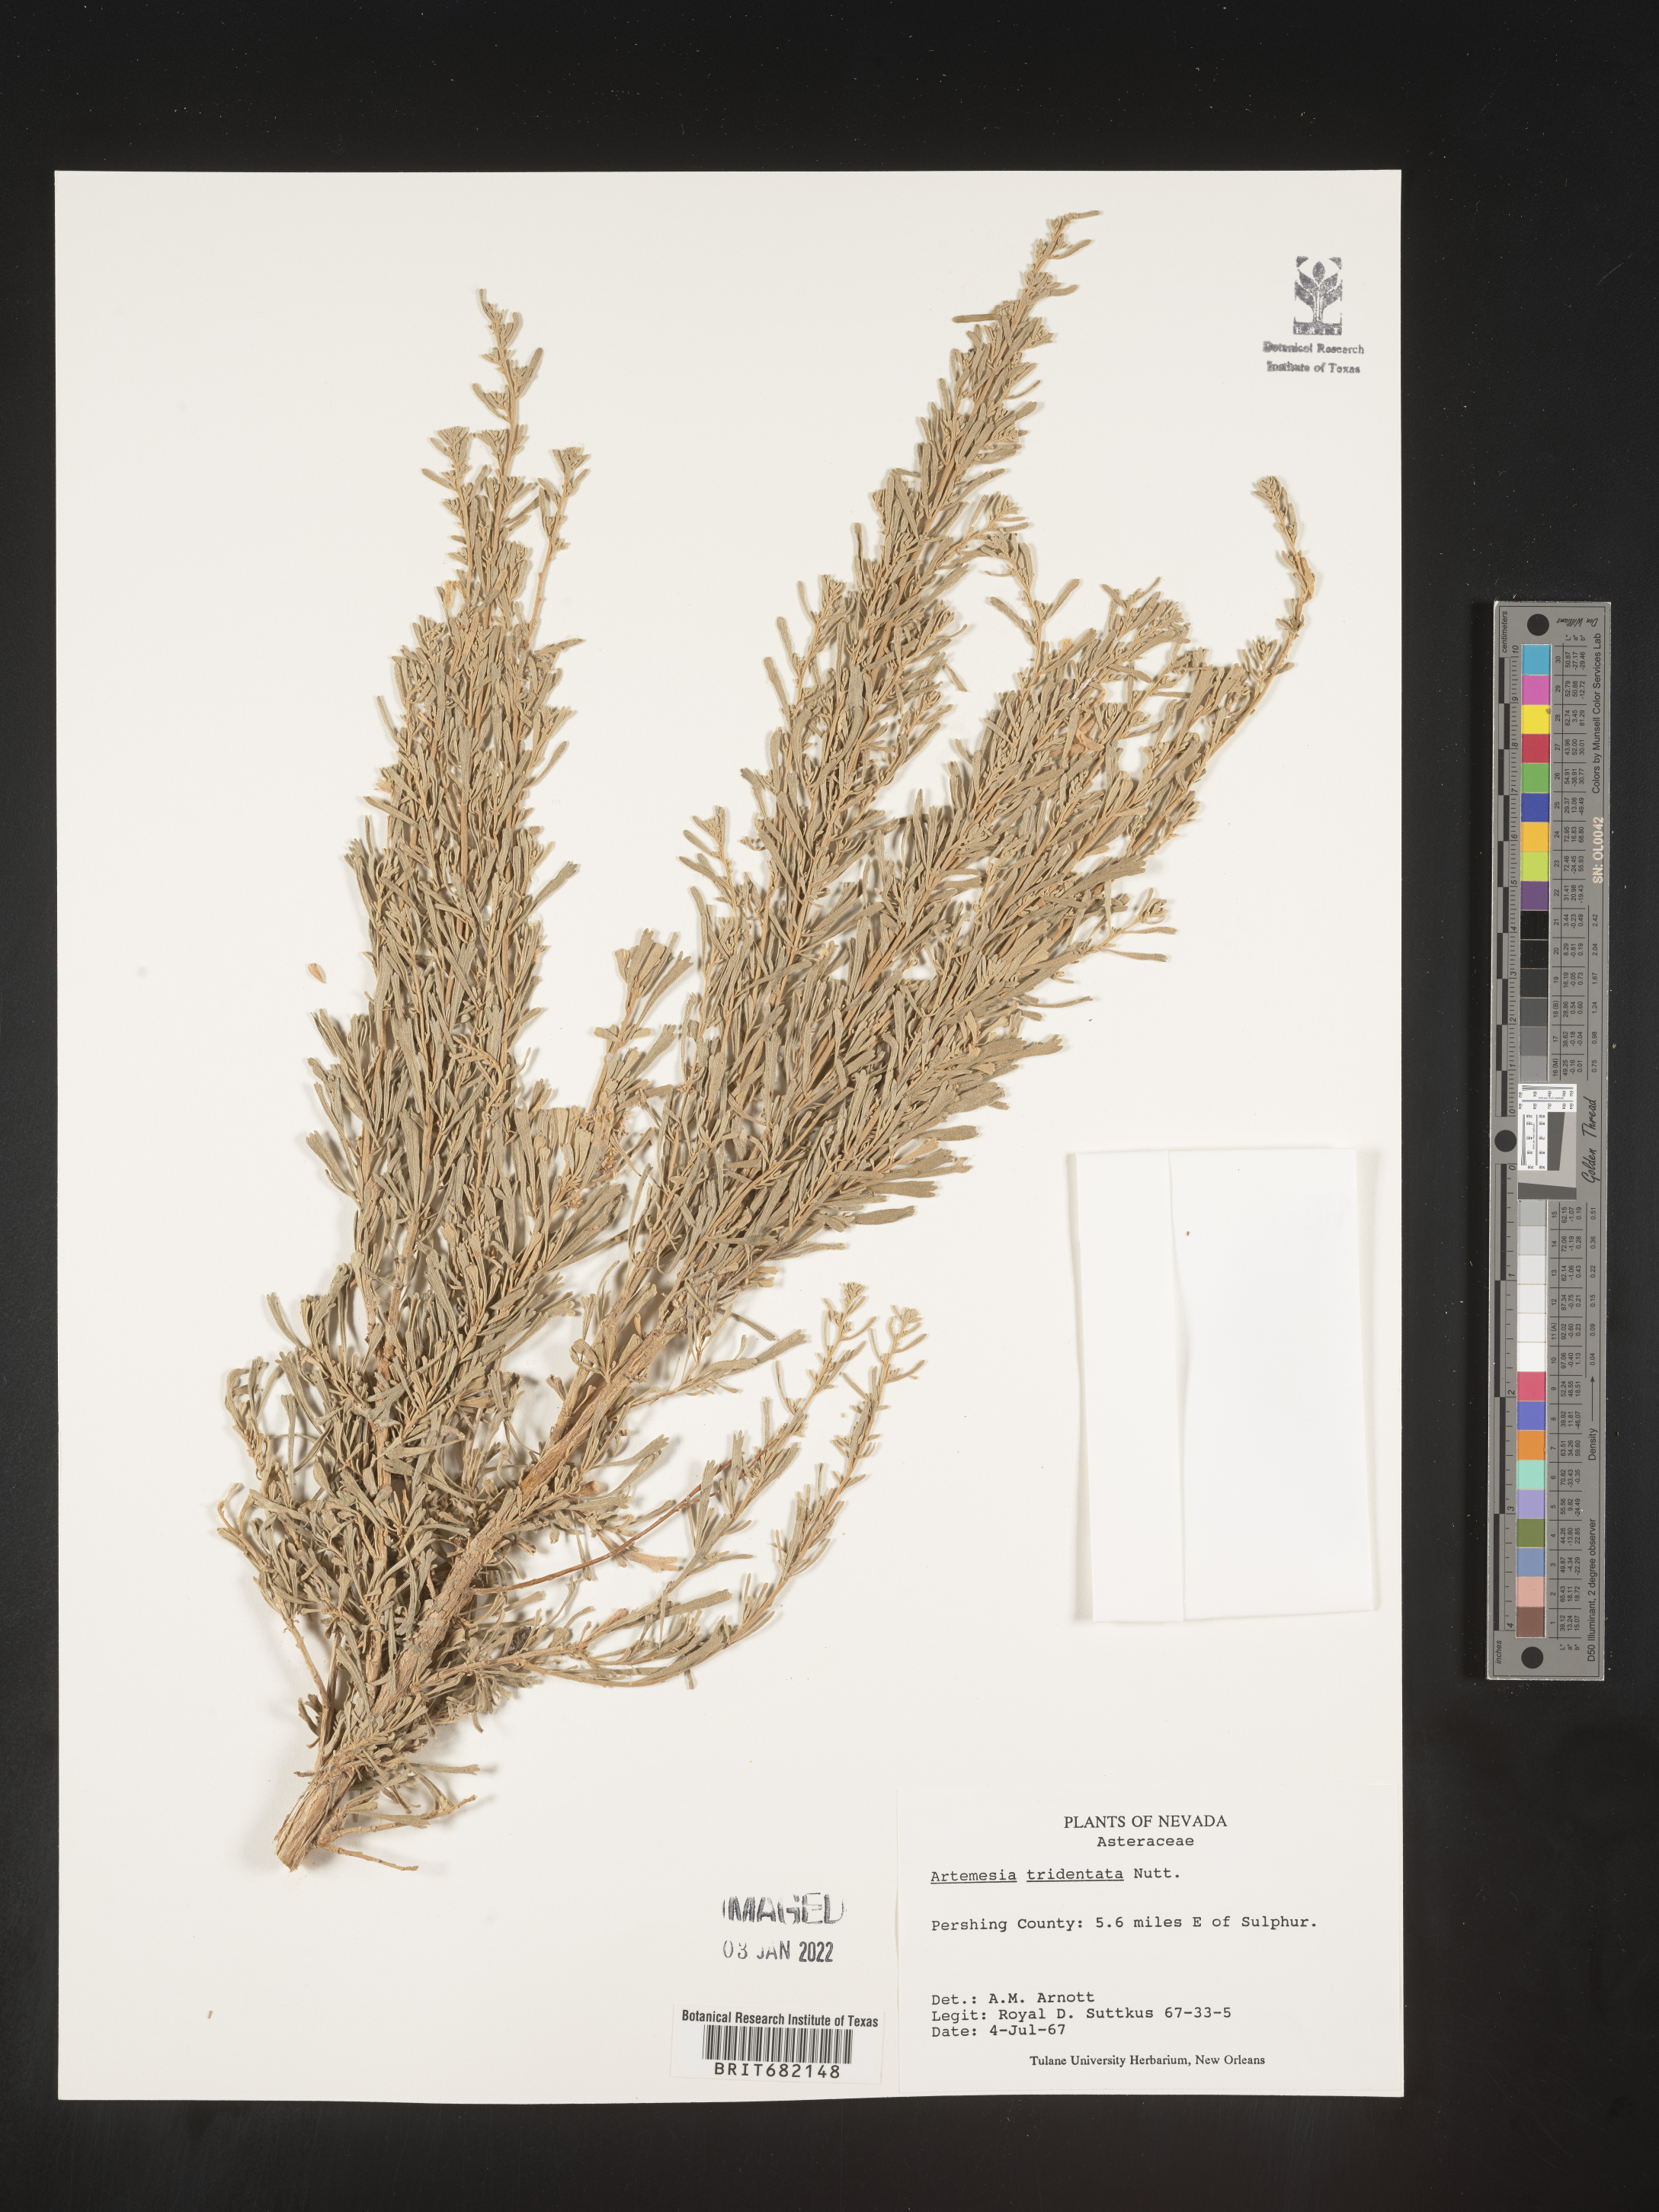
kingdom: Plantae
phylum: Tracheophyta
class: Magnoliopsida
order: Asterales
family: Asteraceae
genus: Artemisia
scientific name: Artemisia tridentata
